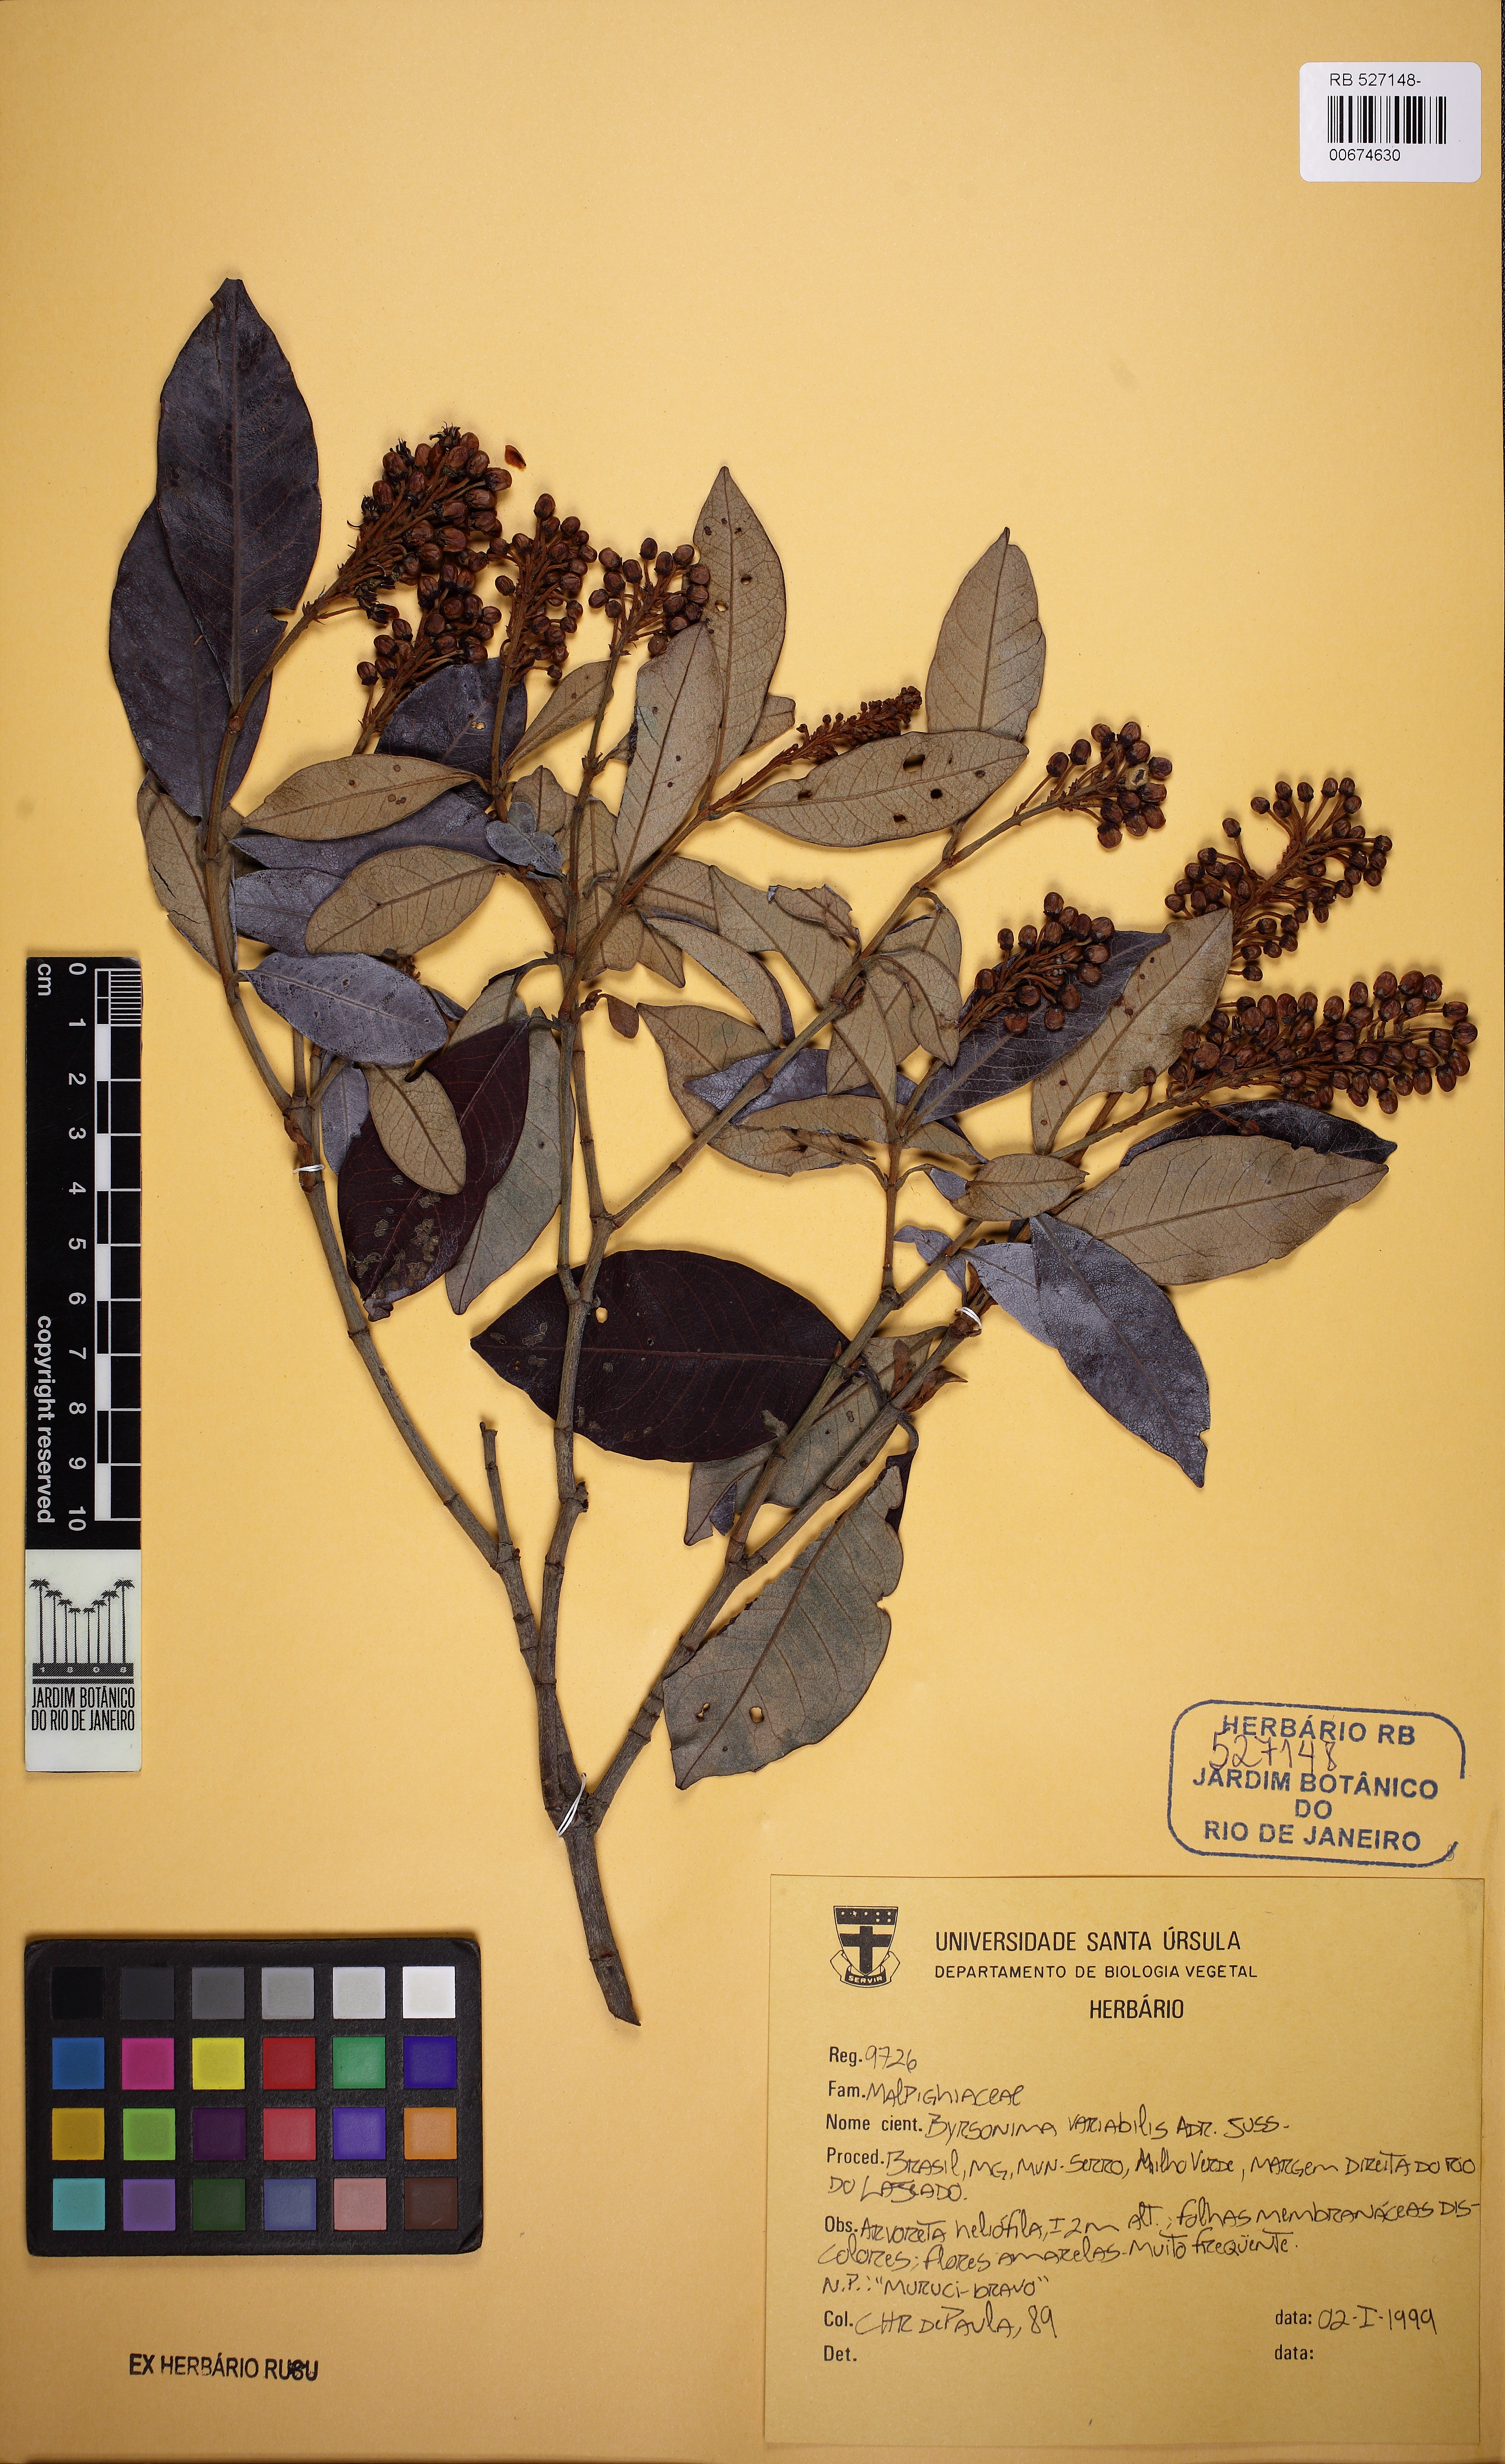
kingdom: Plantae
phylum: Tracheophyta
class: Magnoliopsida
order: Malpighiales
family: Malpighiaceae
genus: Byrsonima
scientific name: Byrsonima variabilis
